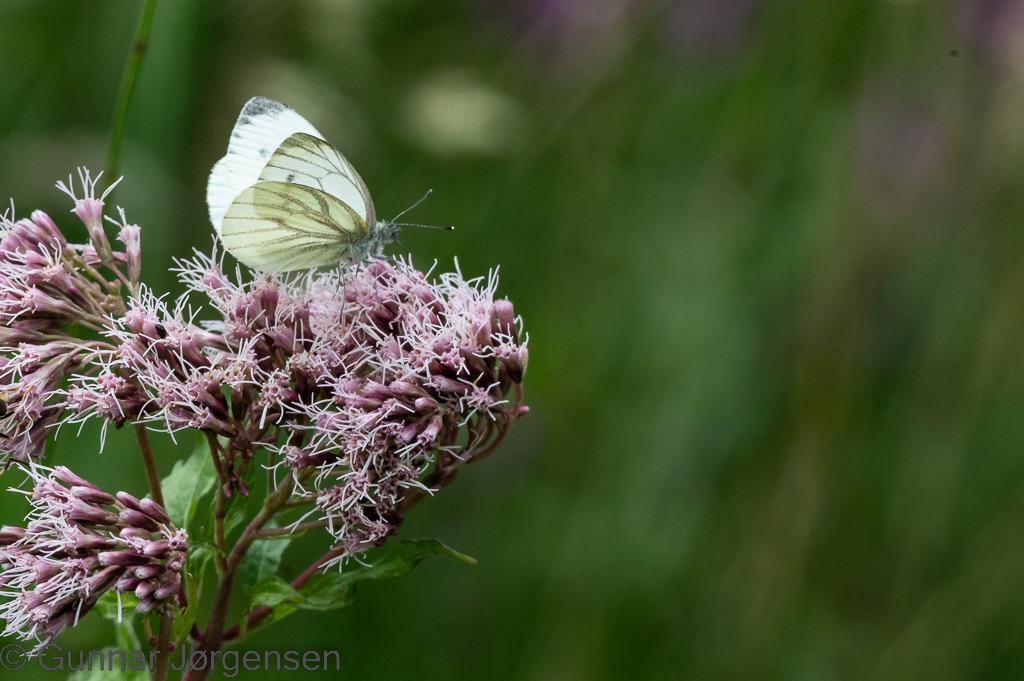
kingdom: Animalia
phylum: Arthropoda
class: Insecta
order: Lepidoptera
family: Pieridae
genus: Pieris
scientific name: Pieris napi
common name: Grønåret kålsommerfugl
